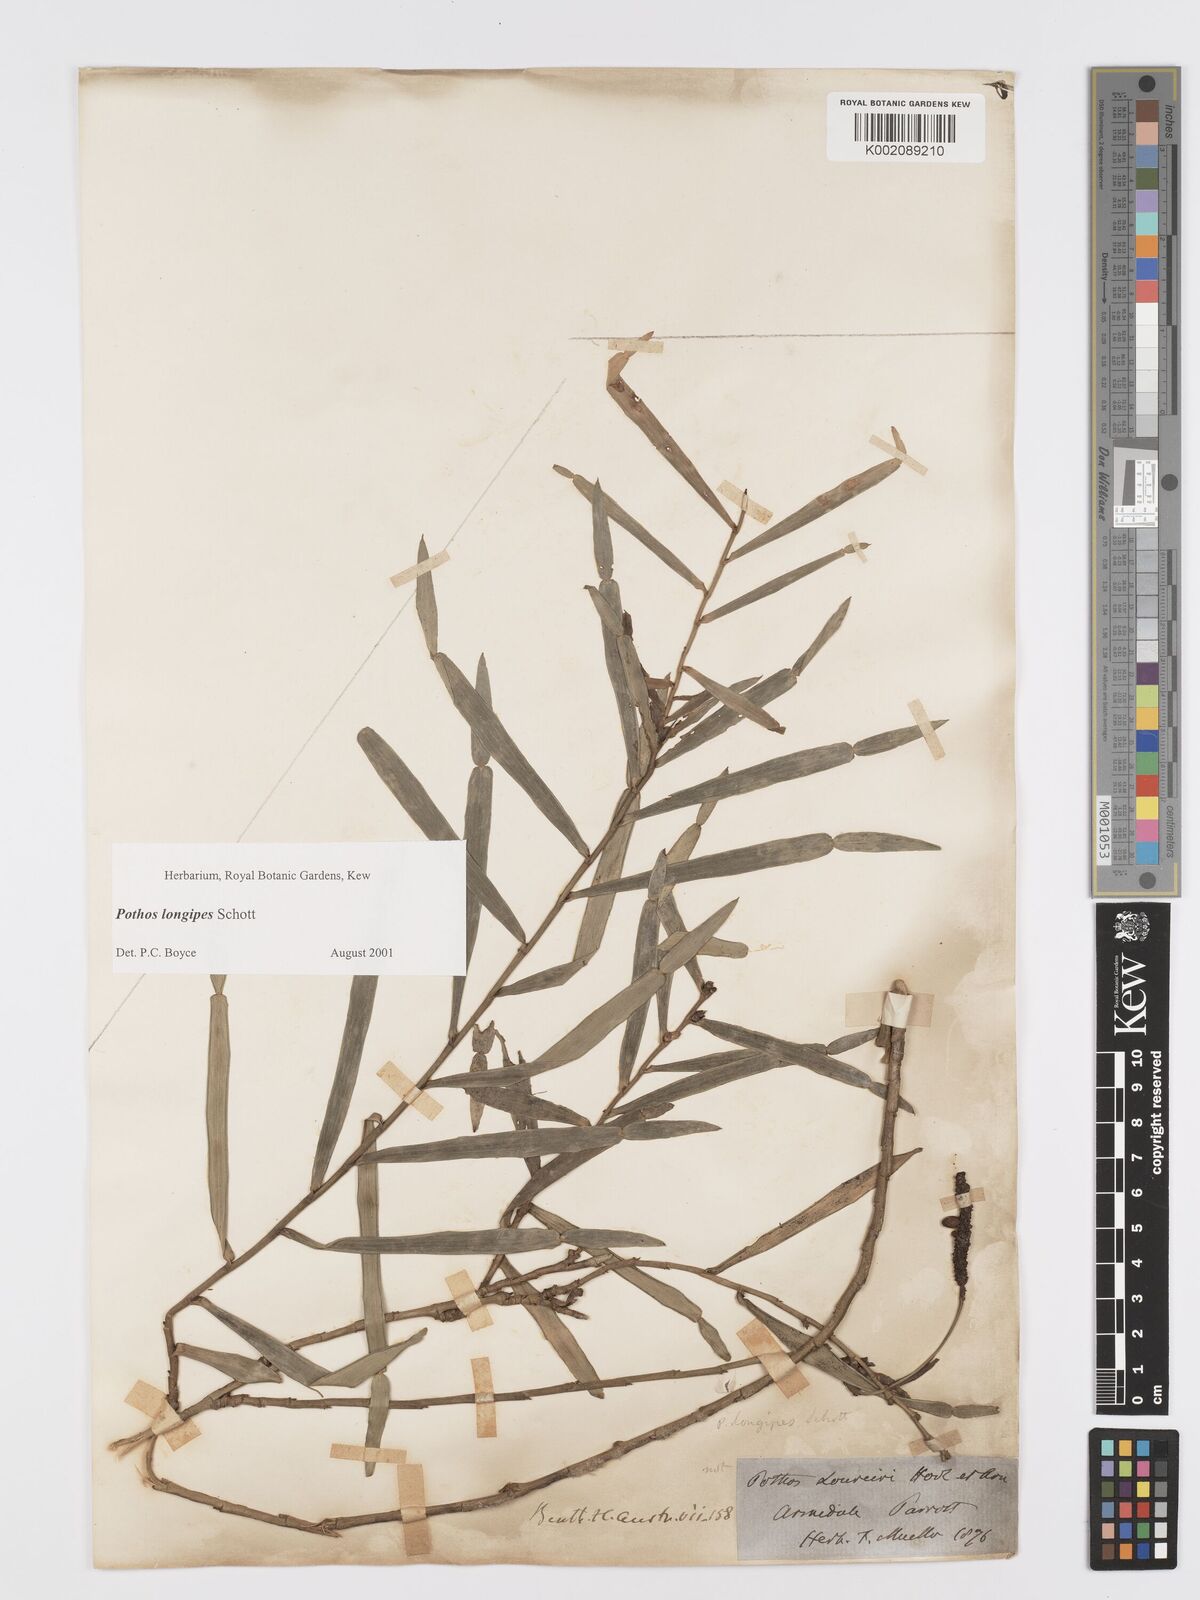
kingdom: Plantae
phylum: Tracheophyta
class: Liliopsida
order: Alismatales
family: Araceae
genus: Pothos
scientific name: Pothos longipes
